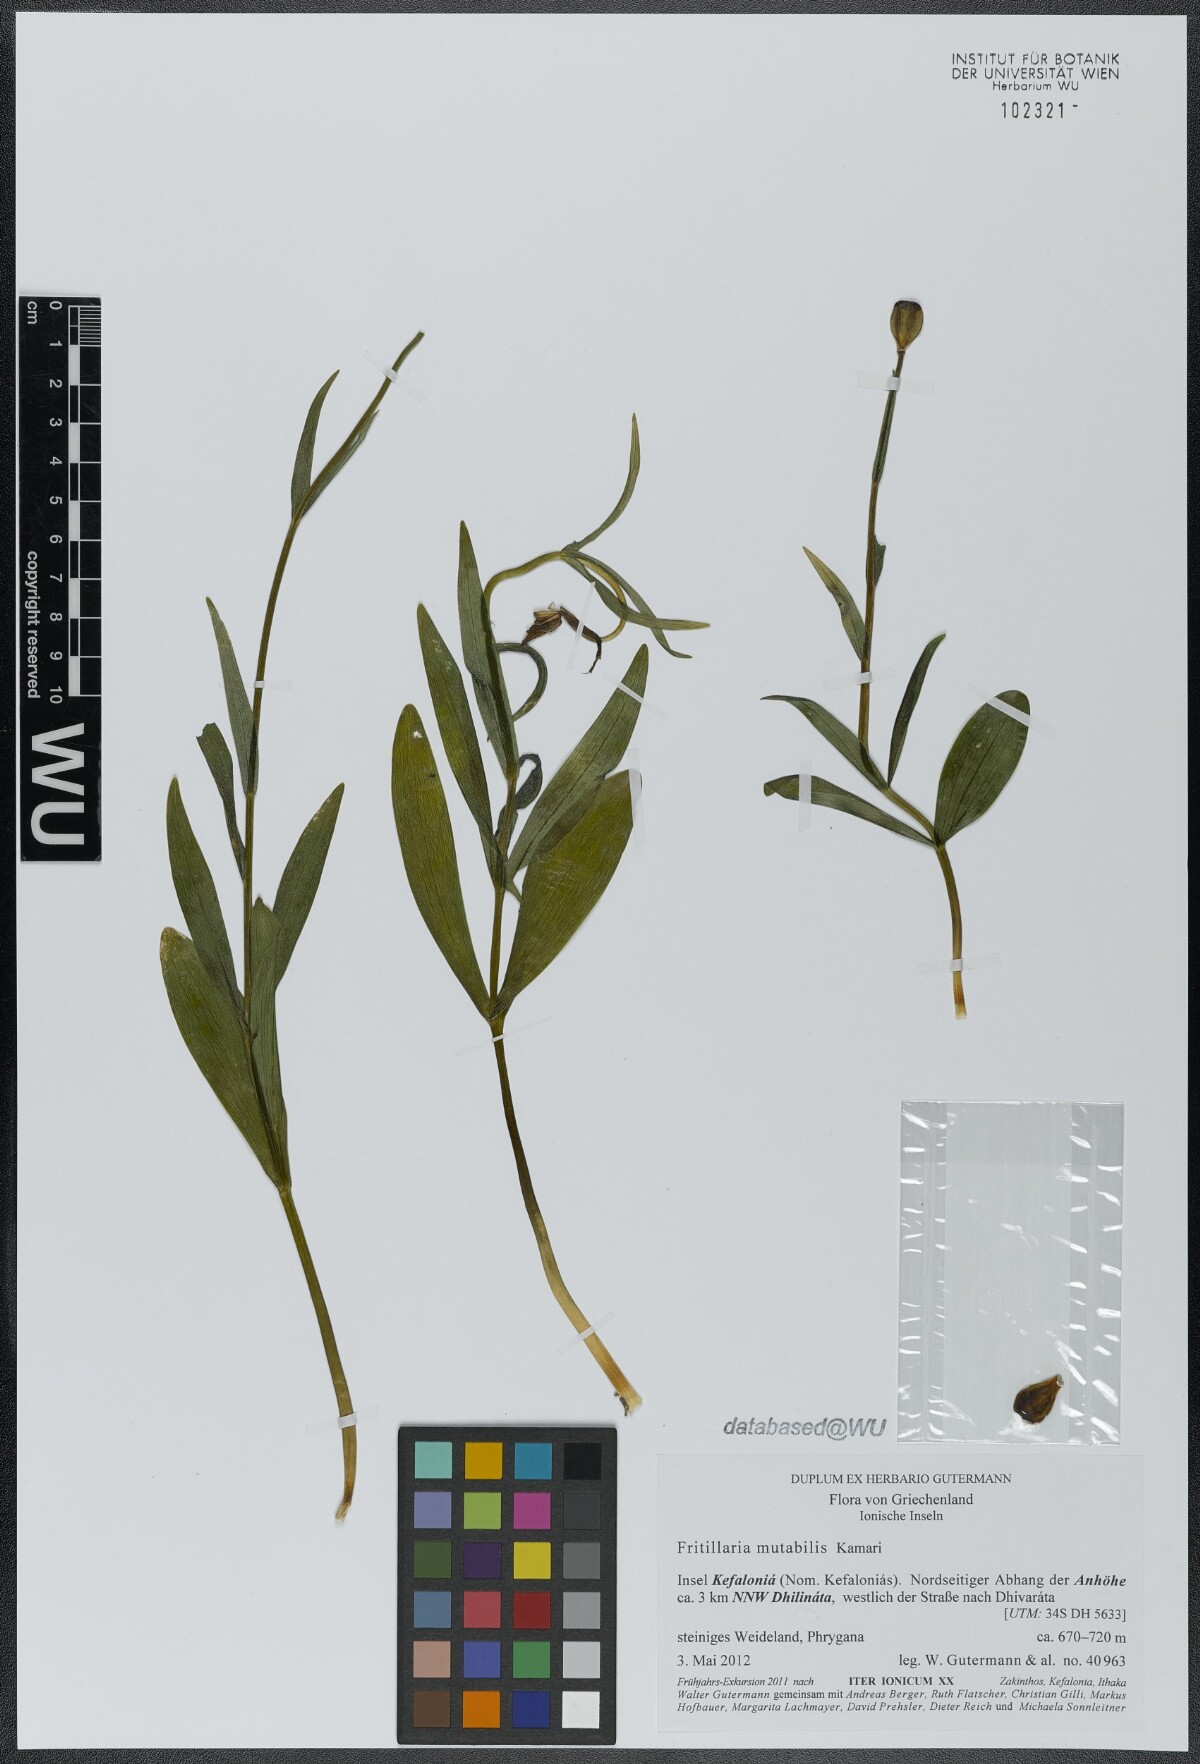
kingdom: Plantae
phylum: Tracheophyta
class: Liliopsida
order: Liliales
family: Liliaceae
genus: Fritillaria
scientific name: Fritillaria mutabilis
